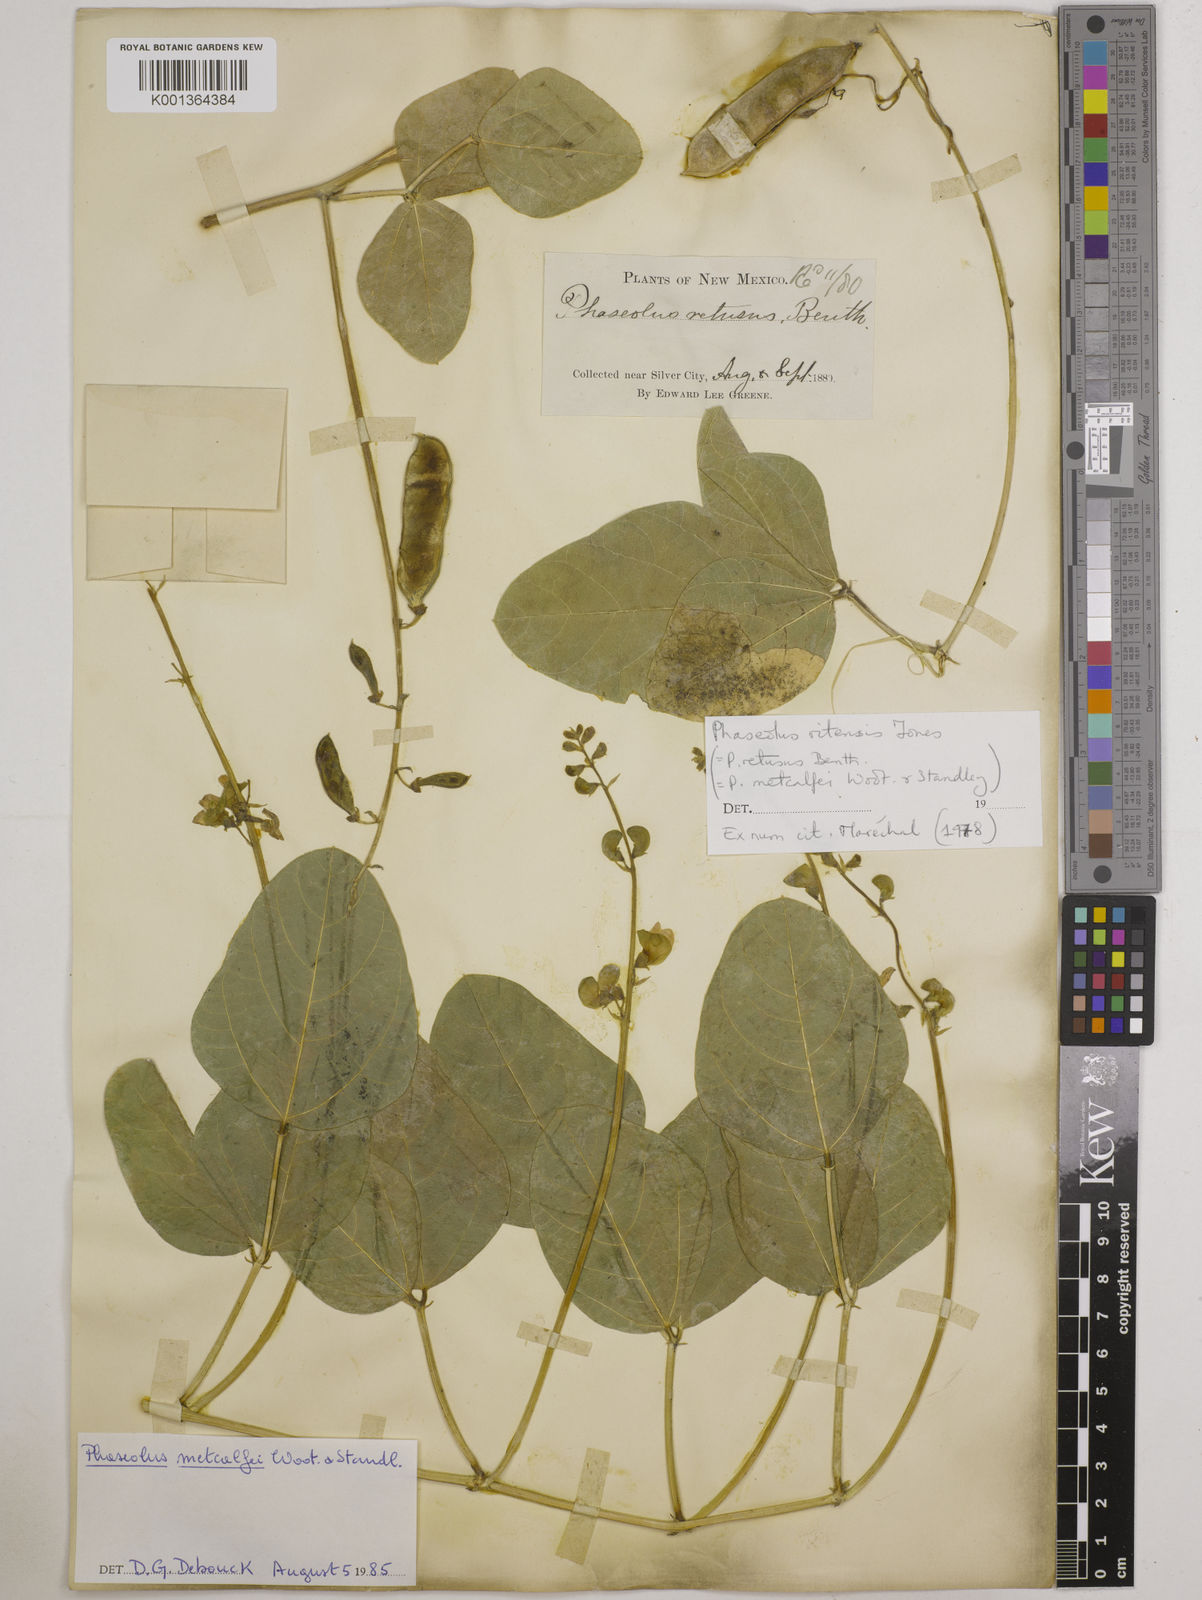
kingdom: Plantae
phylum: Tracheophyta
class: Magnoliopsida
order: Fabales
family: Fabaceae
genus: Phaseolus
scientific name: Phaseolus maculatus
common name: Metcalfe bean
